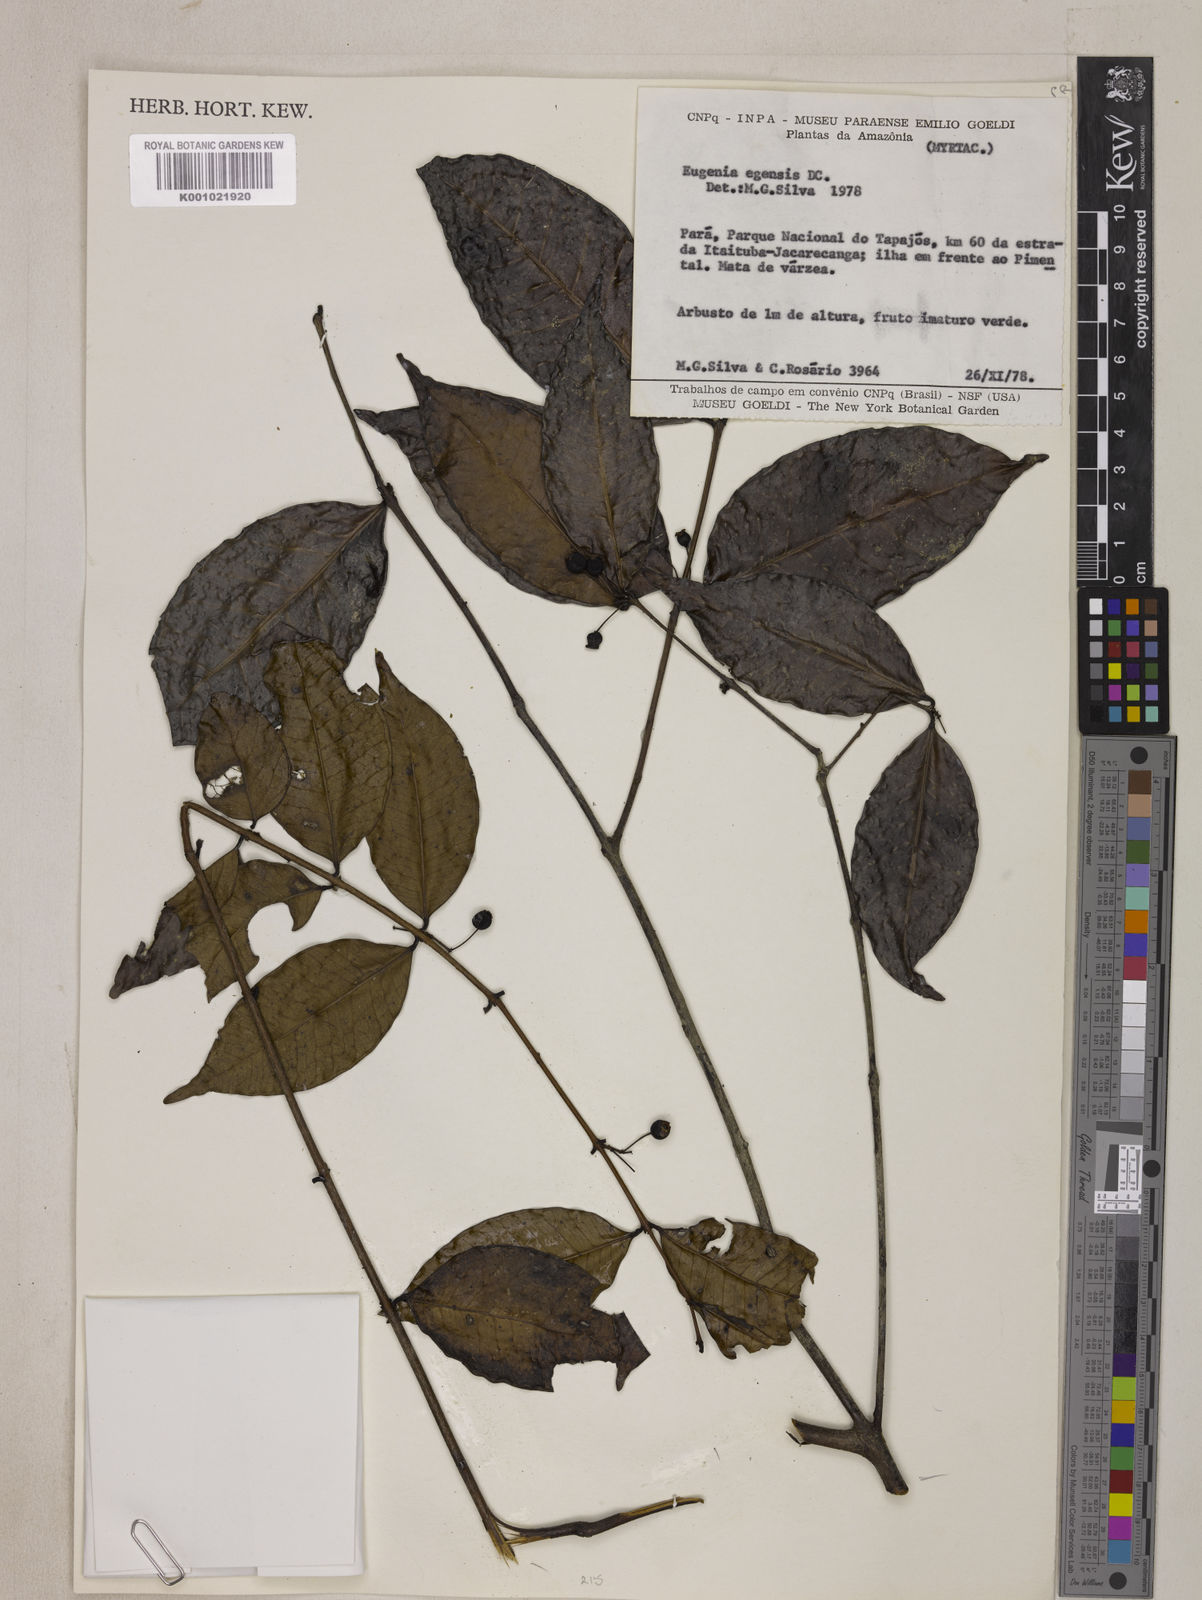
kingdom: Plantae
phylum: Tracheophyta
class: Magnoliopsida
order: Myrtales
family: Myrtaceae
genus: Eugenia
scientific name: Eugenia egensis
